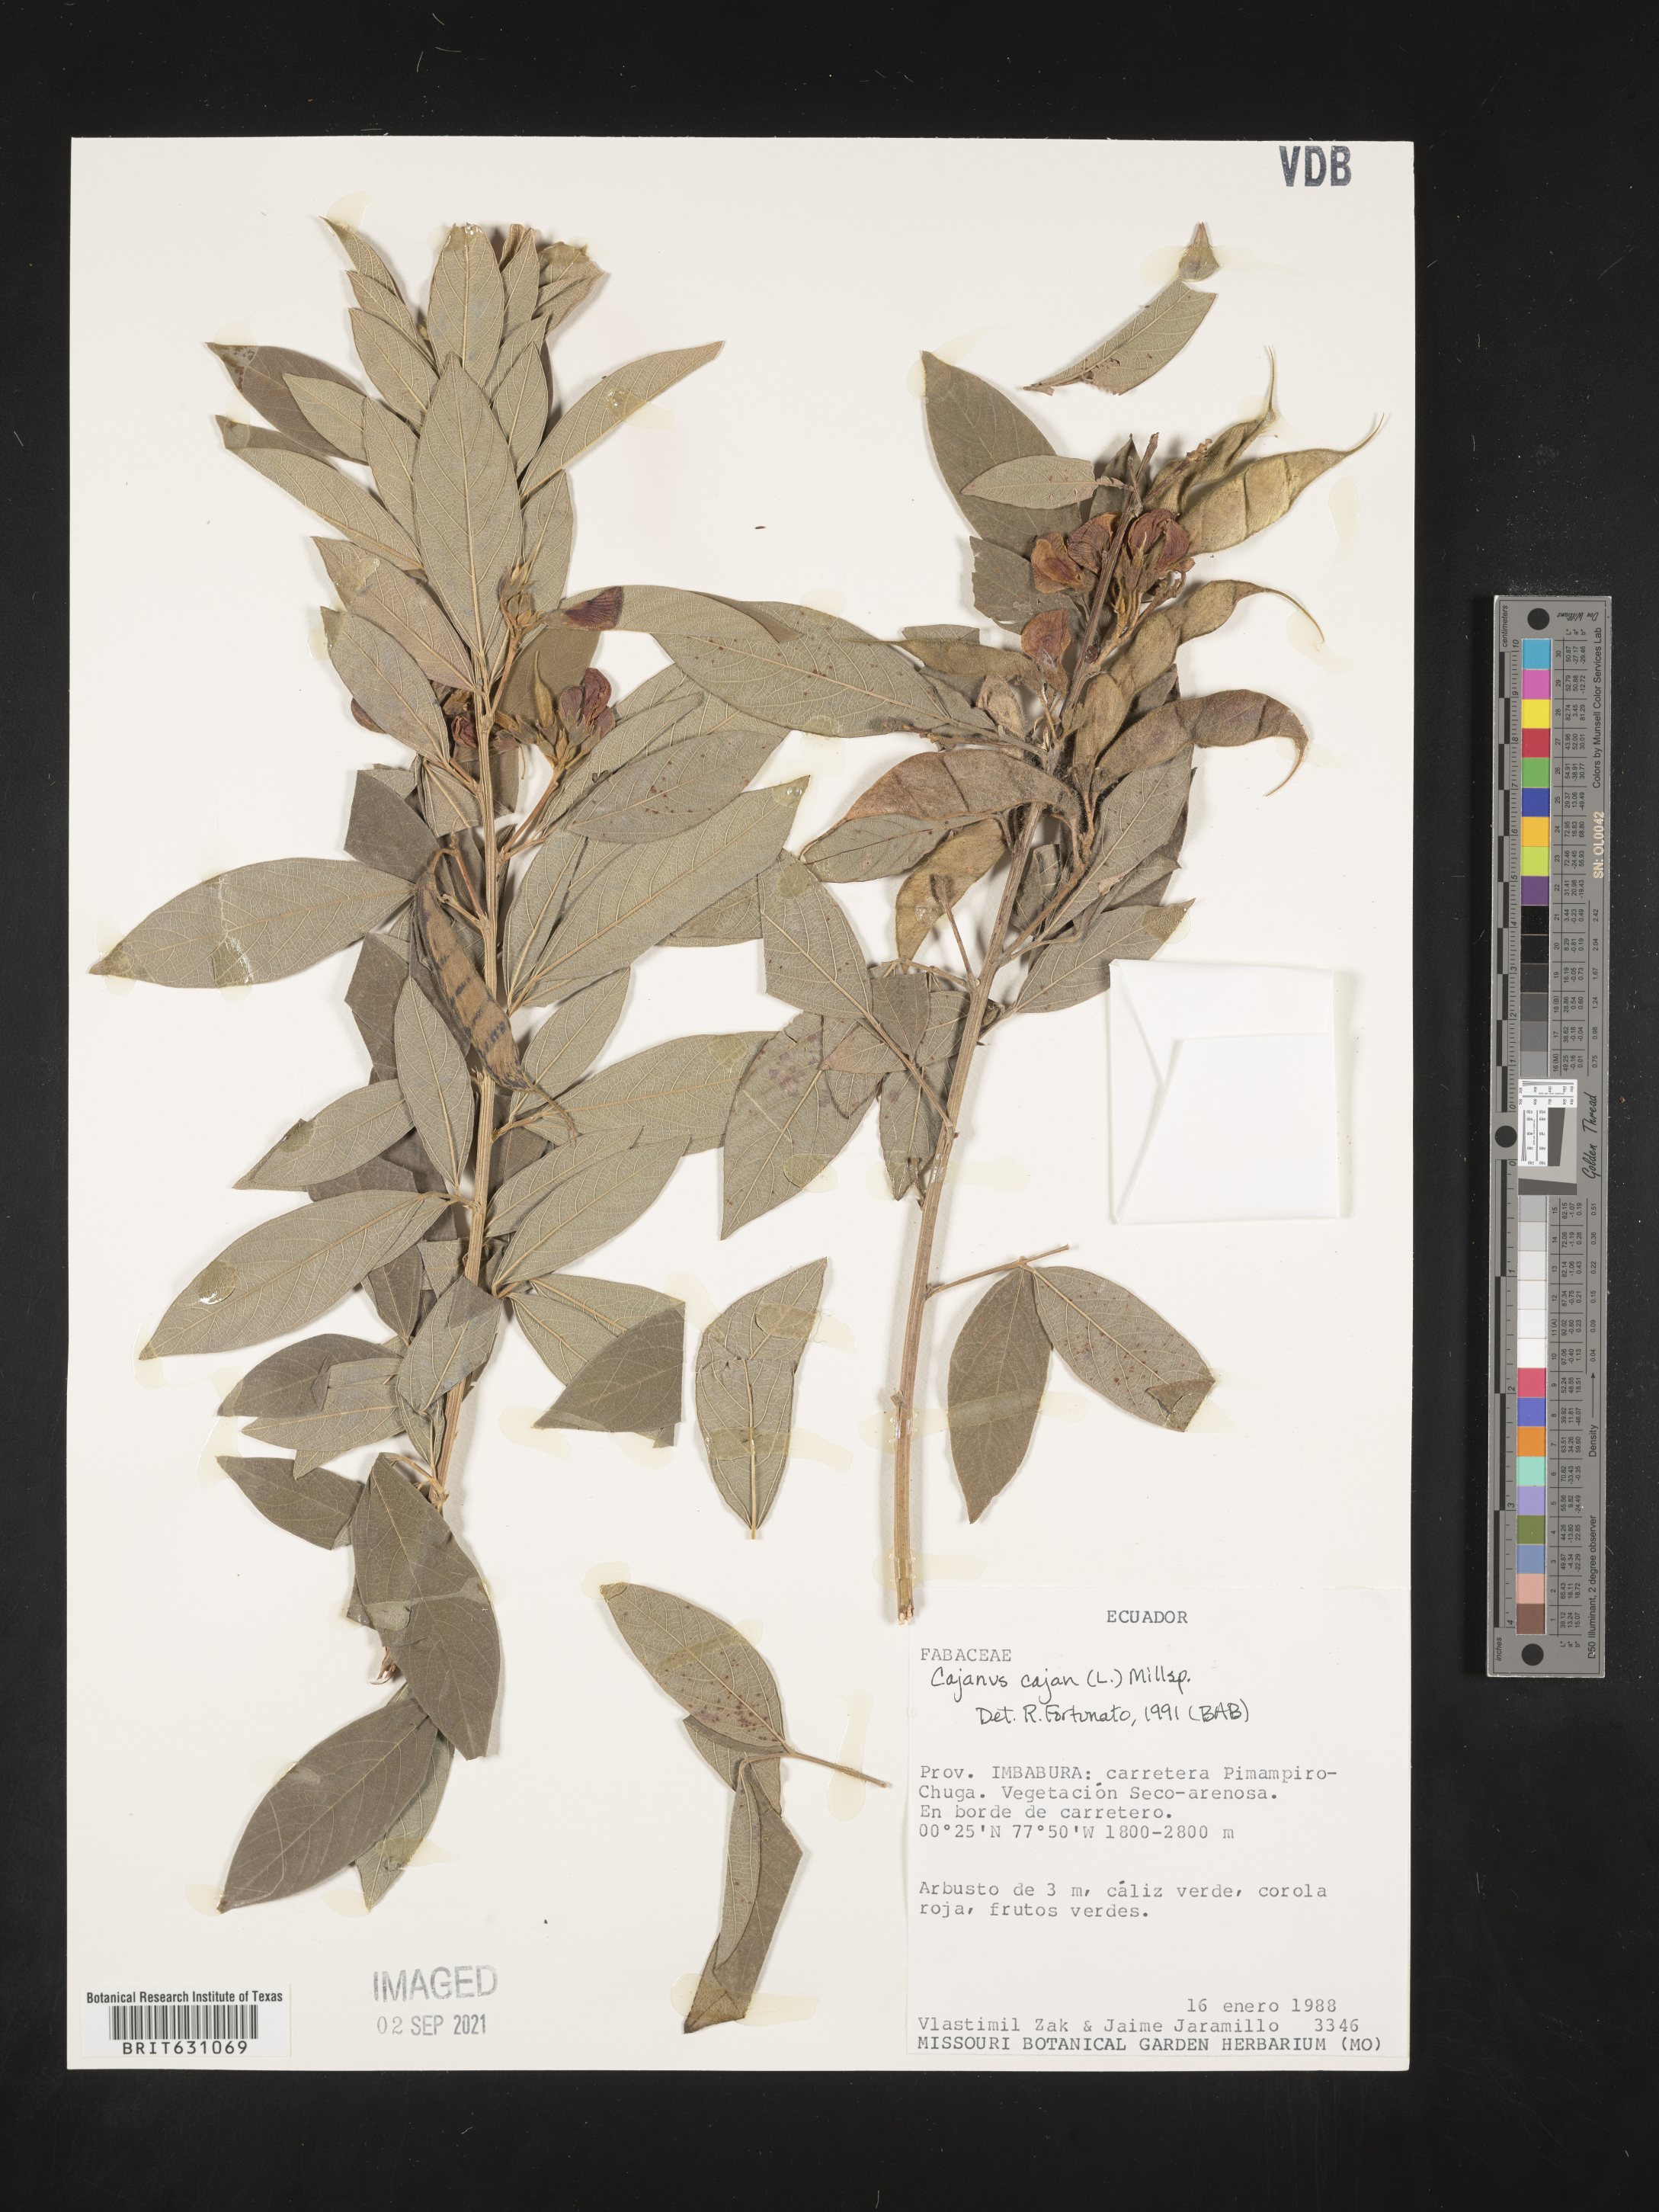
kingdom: Plantae
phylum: Tracheophyta
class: Magnoliopsida
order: Fabales
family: Fabaceae
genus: Cajanus
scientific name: Cajanus
